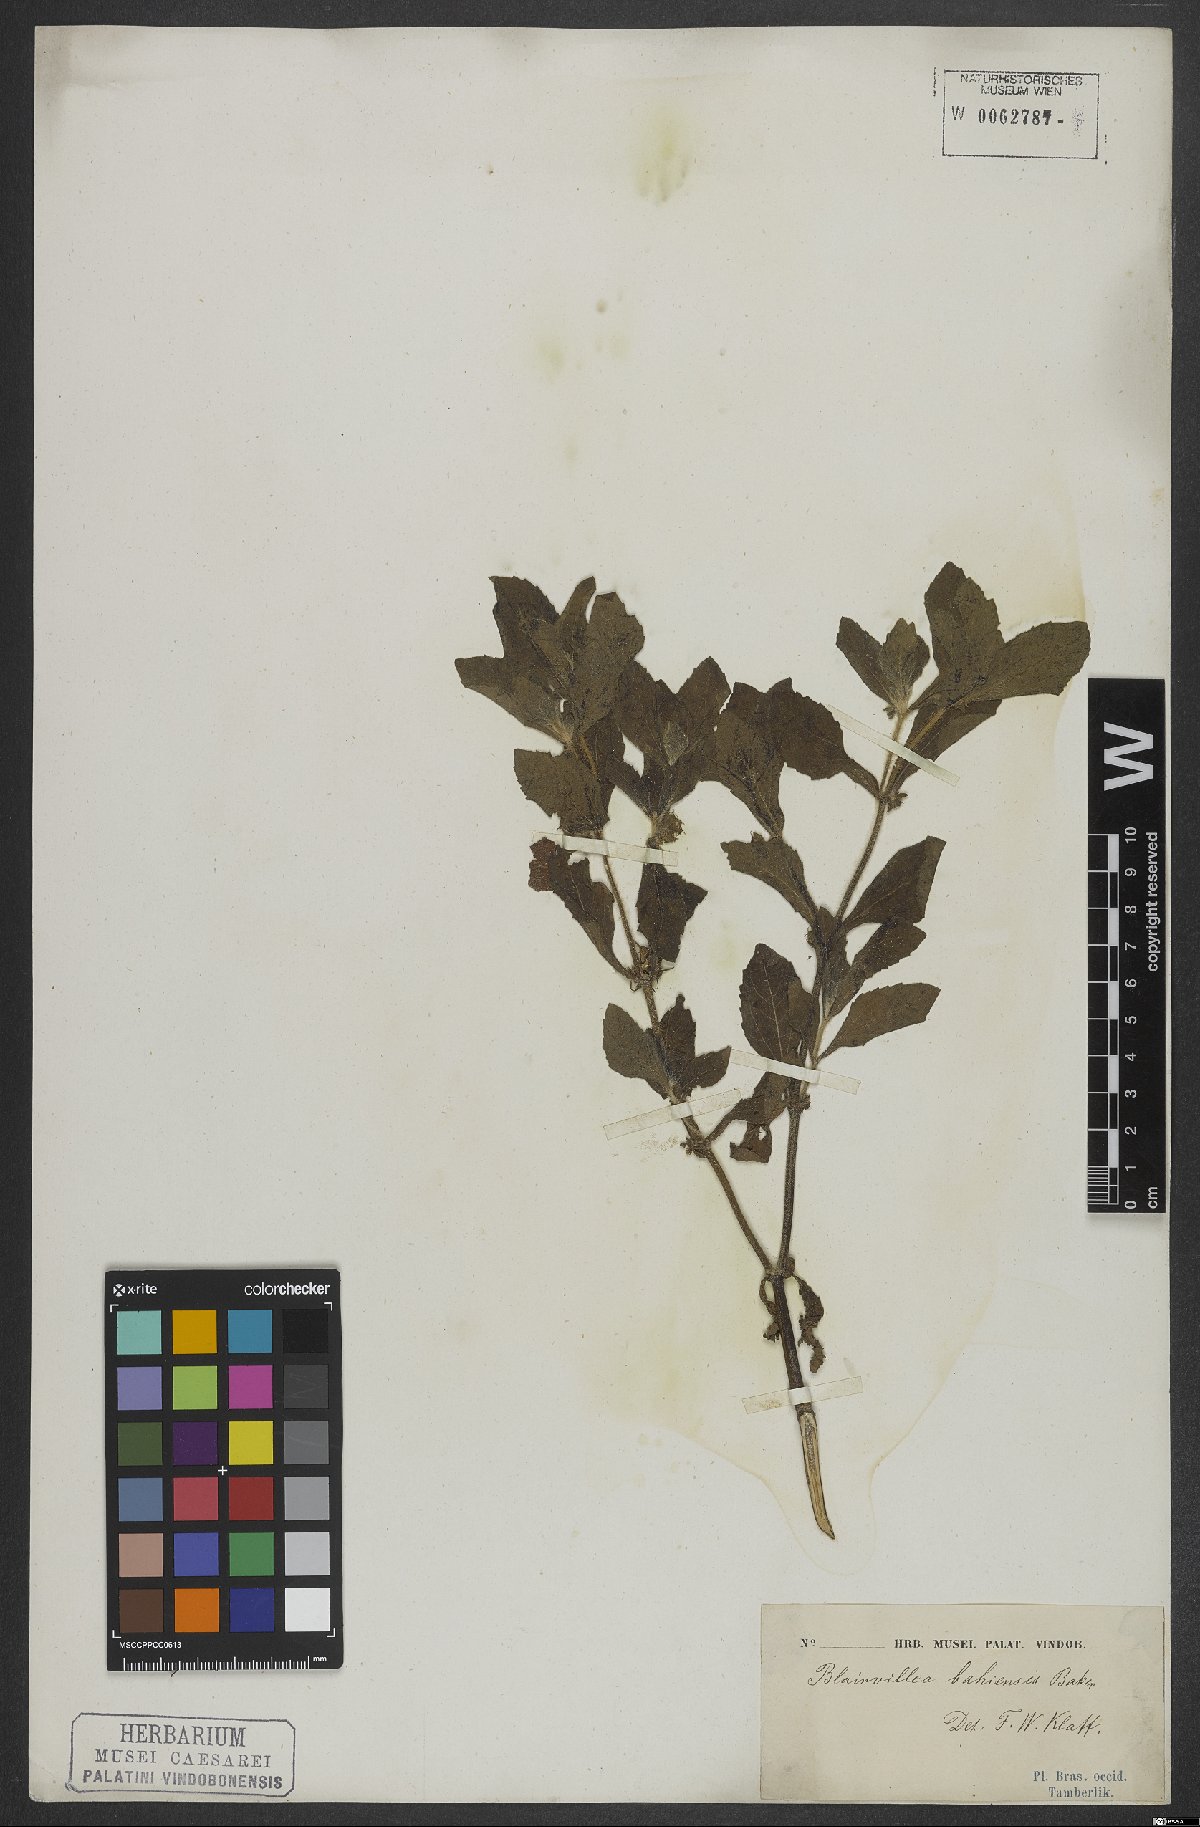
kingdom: Plantae
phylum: Tracheophyta
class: Magnoliopsida
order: Asterales
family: Asteraceae
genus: Calyptocarpus
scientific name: Calyptocarpus brasiliensis
